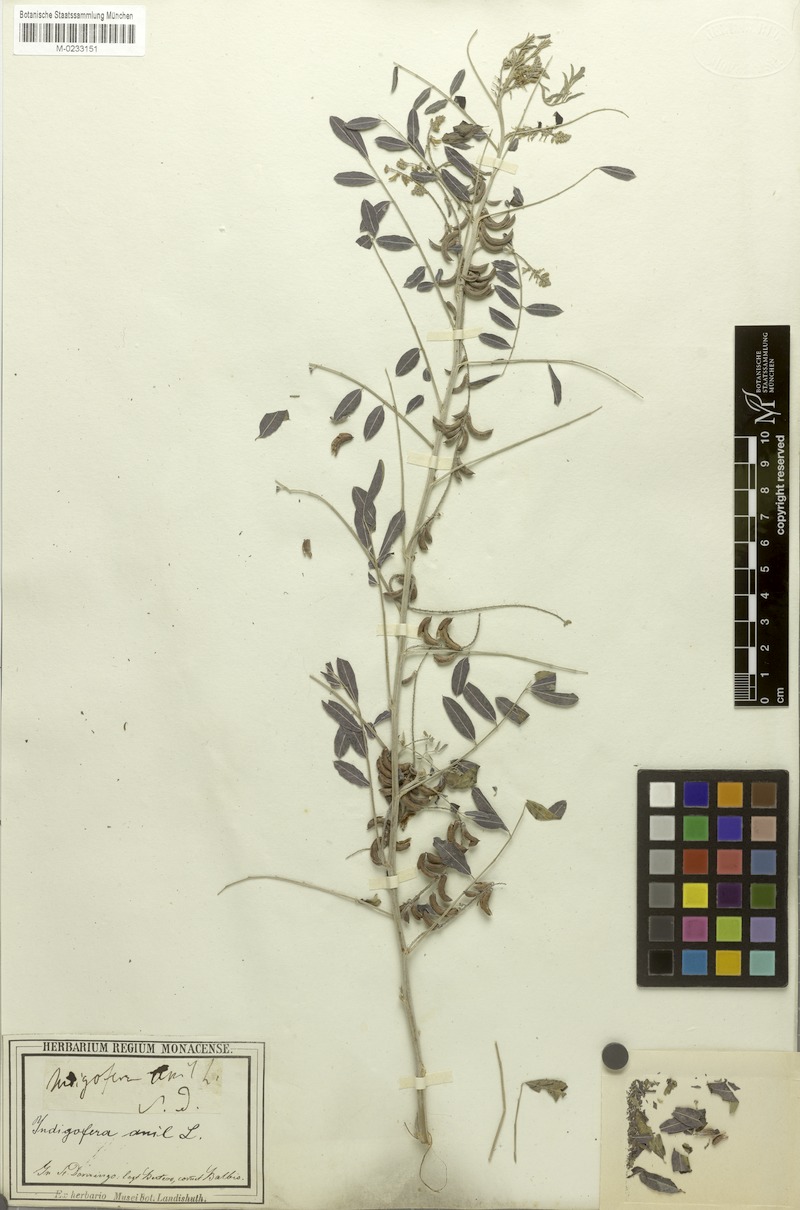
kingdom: Plantae
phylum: Tracheophyta
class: Magnoliopsida
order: Fabales
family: Fabaceae
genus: Indigofera
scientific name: Indigofera suffruticosa
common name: Anil de pasto
